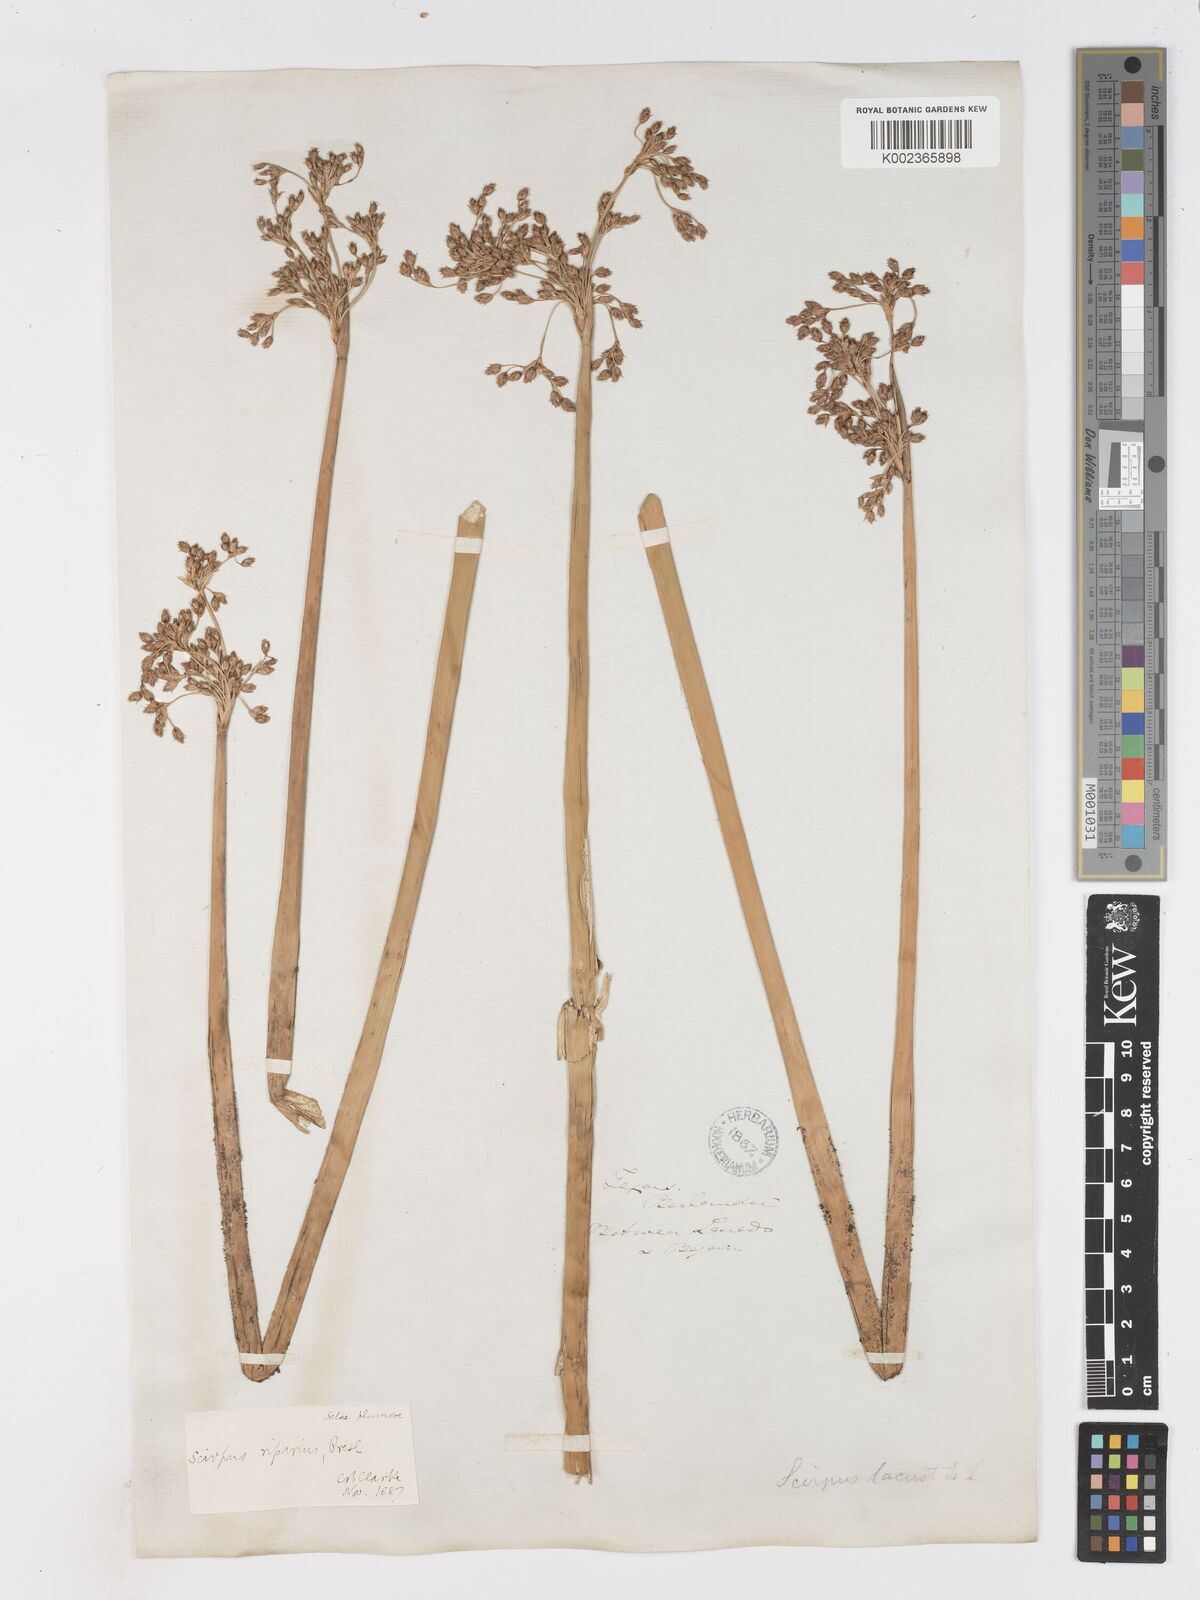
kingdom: Plantae
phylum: Tracheophyta
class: Liliopsida
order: Poales
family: Cyperaceae
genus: Schoenoplectus
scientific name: Schoenoplectus californicus
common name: California bulrush
